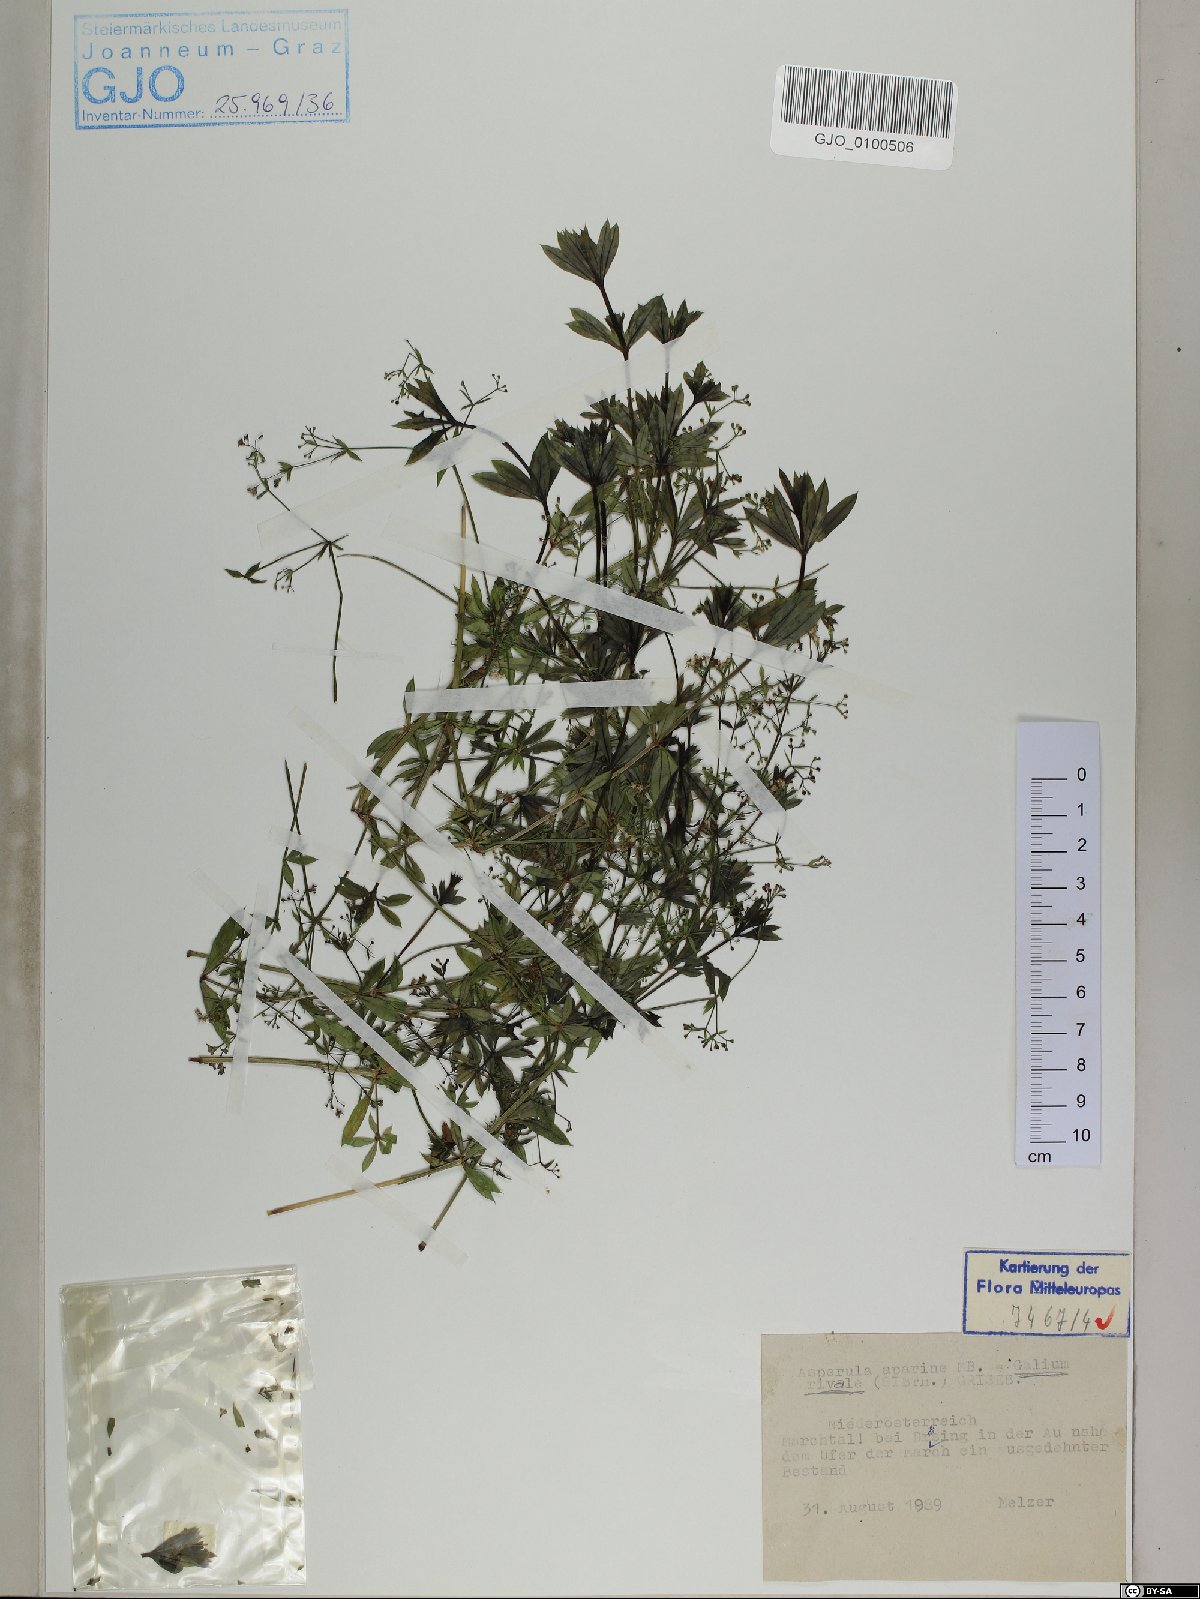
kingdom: Plantae
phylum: Tracheophyta
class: Magnoliopsida
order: Gentianales
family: Rubiaceae
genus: Galium
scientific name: Galium rivale
